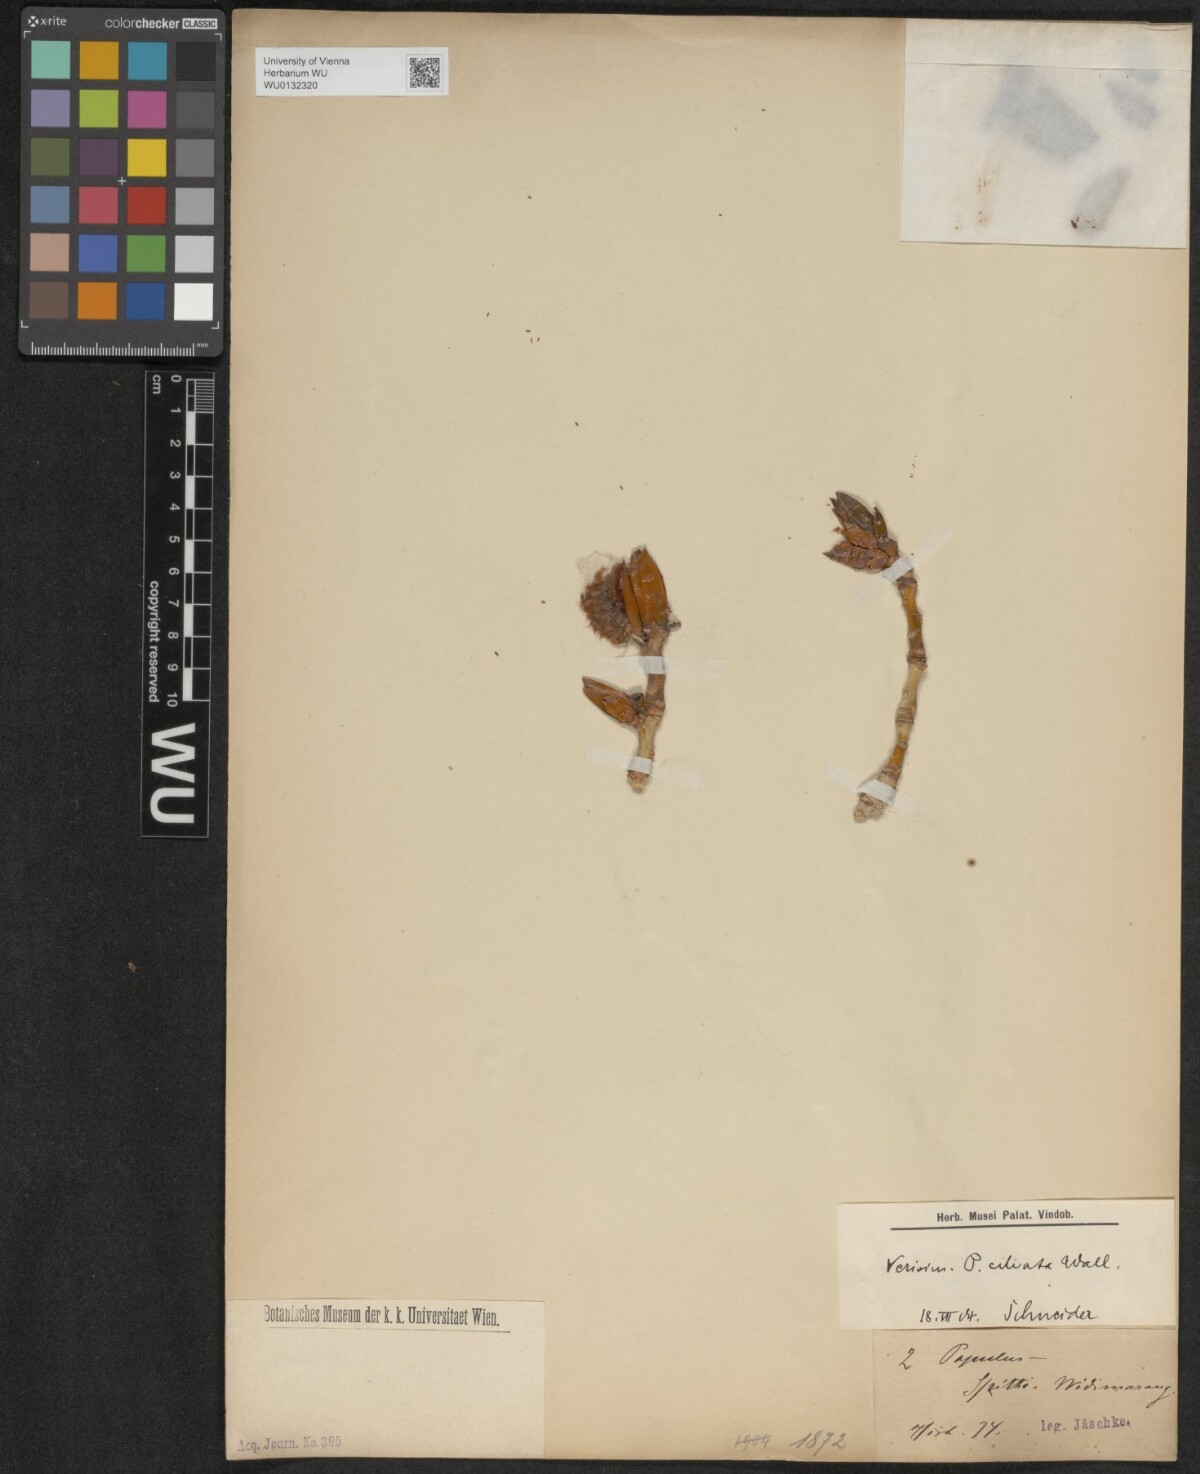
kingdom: Plantae
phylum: Tracheophyta
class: Magnoliopsida
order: Malpighiales
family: Salicaceae
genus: Populus
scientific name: Populus ciliata
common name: Himalayan poplar
